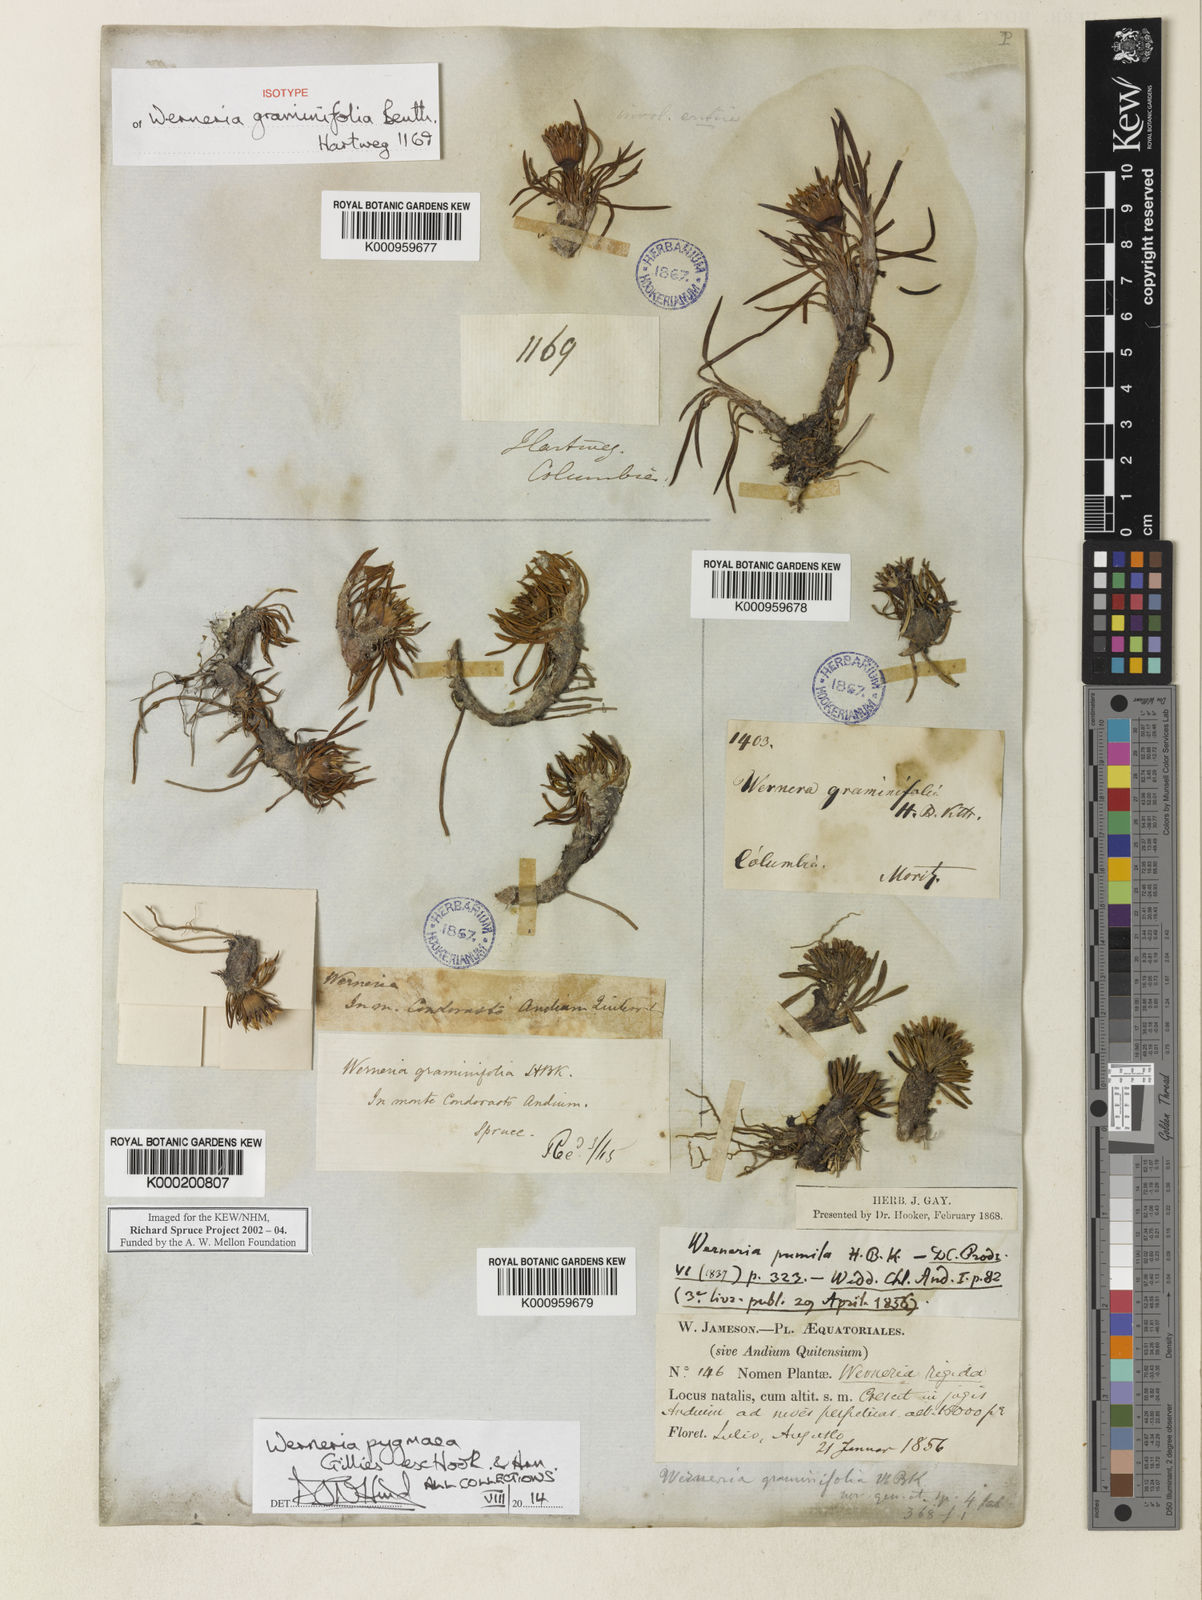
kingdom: Plantae
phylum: Tracheophyta
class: Magnoliopsida
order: Asterales
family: Asteraceae
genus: Rockhausenia
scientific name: Rockhausenia pygmaea
